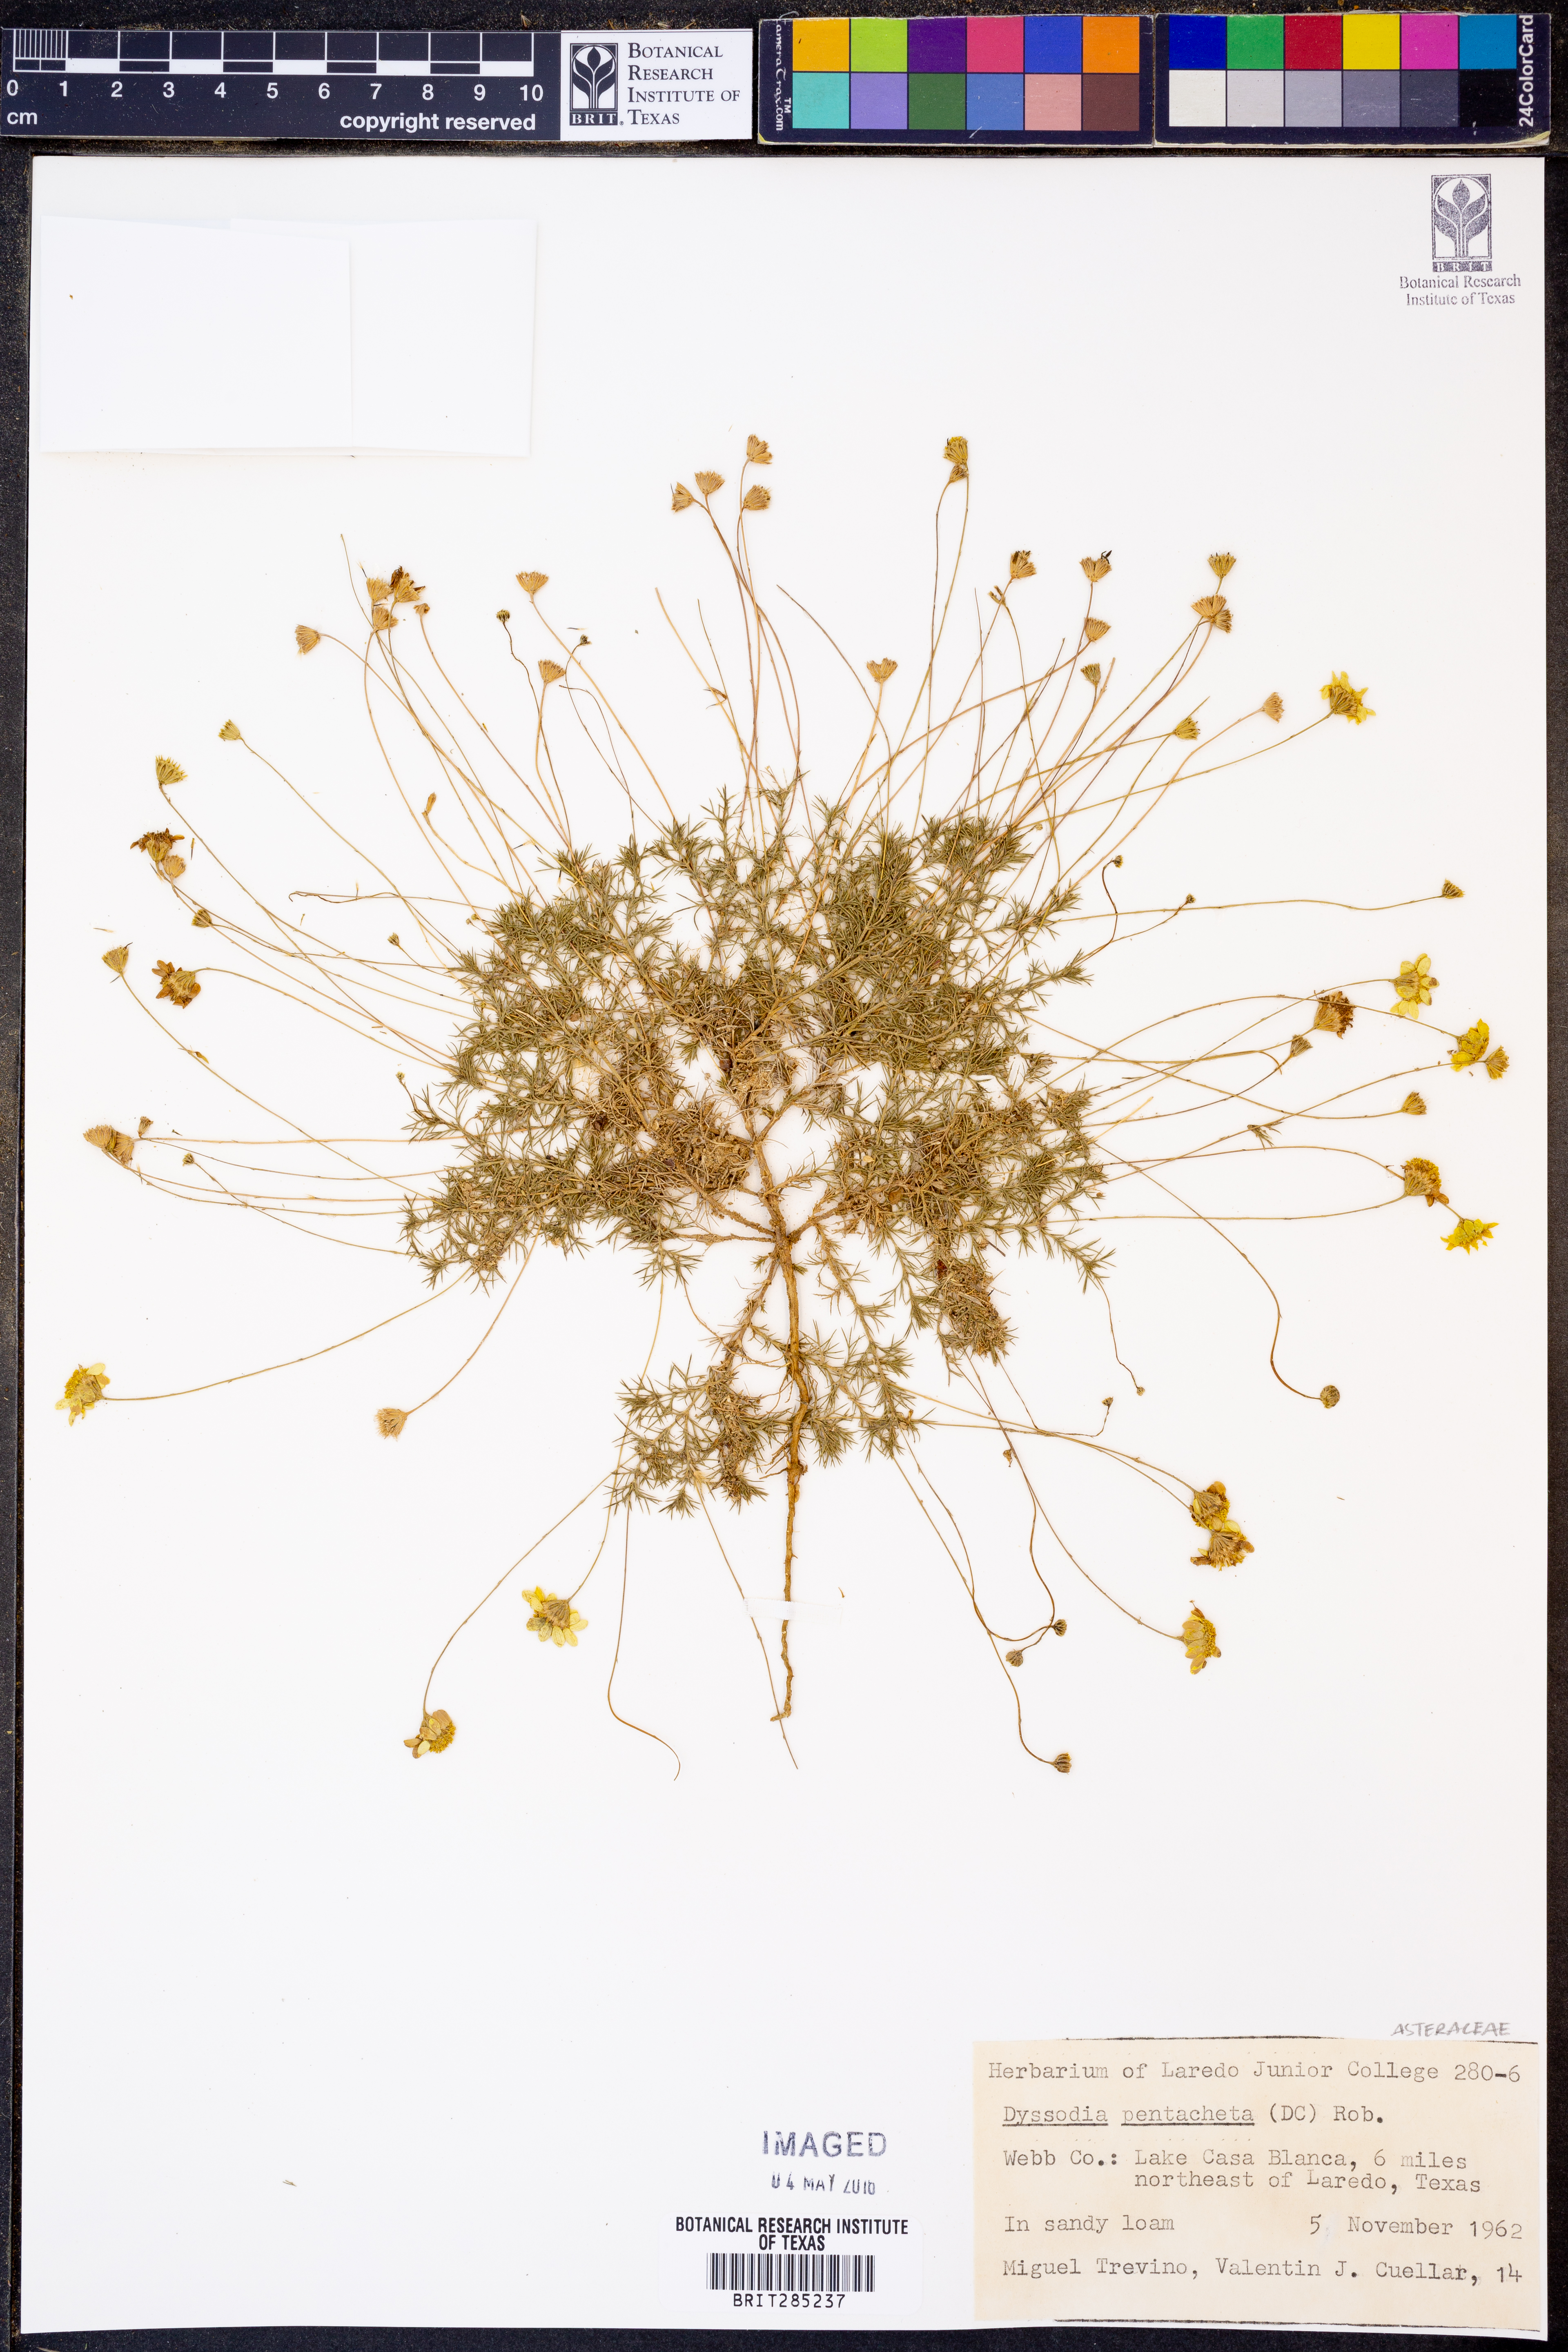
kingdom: Plantae
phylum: Tracheophyta
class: Magnoliopsida
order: Asterales
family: Asteraceae
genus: Thymophylla
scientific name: Thymophylla pentachaeta
